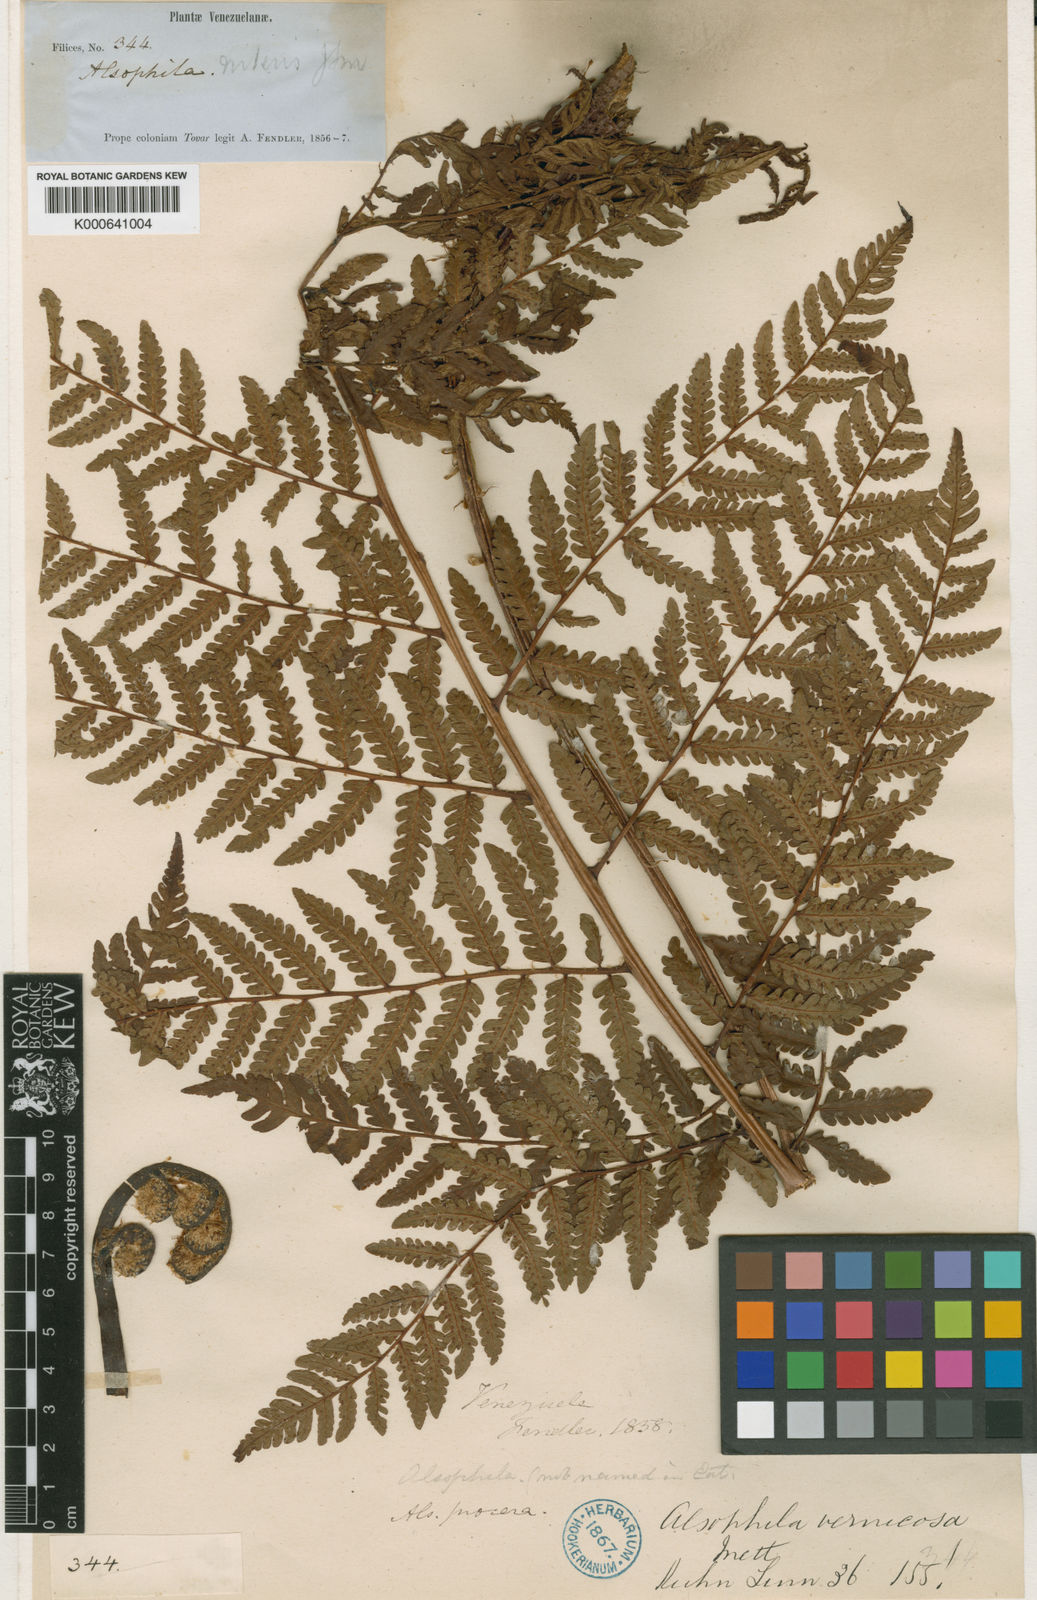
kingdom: Plantae
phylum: Tracheophyta
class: Polypodiopsida
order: Cyatheales
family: Cyatheaceae
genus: Cyathea
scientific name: Cyathea villosa
